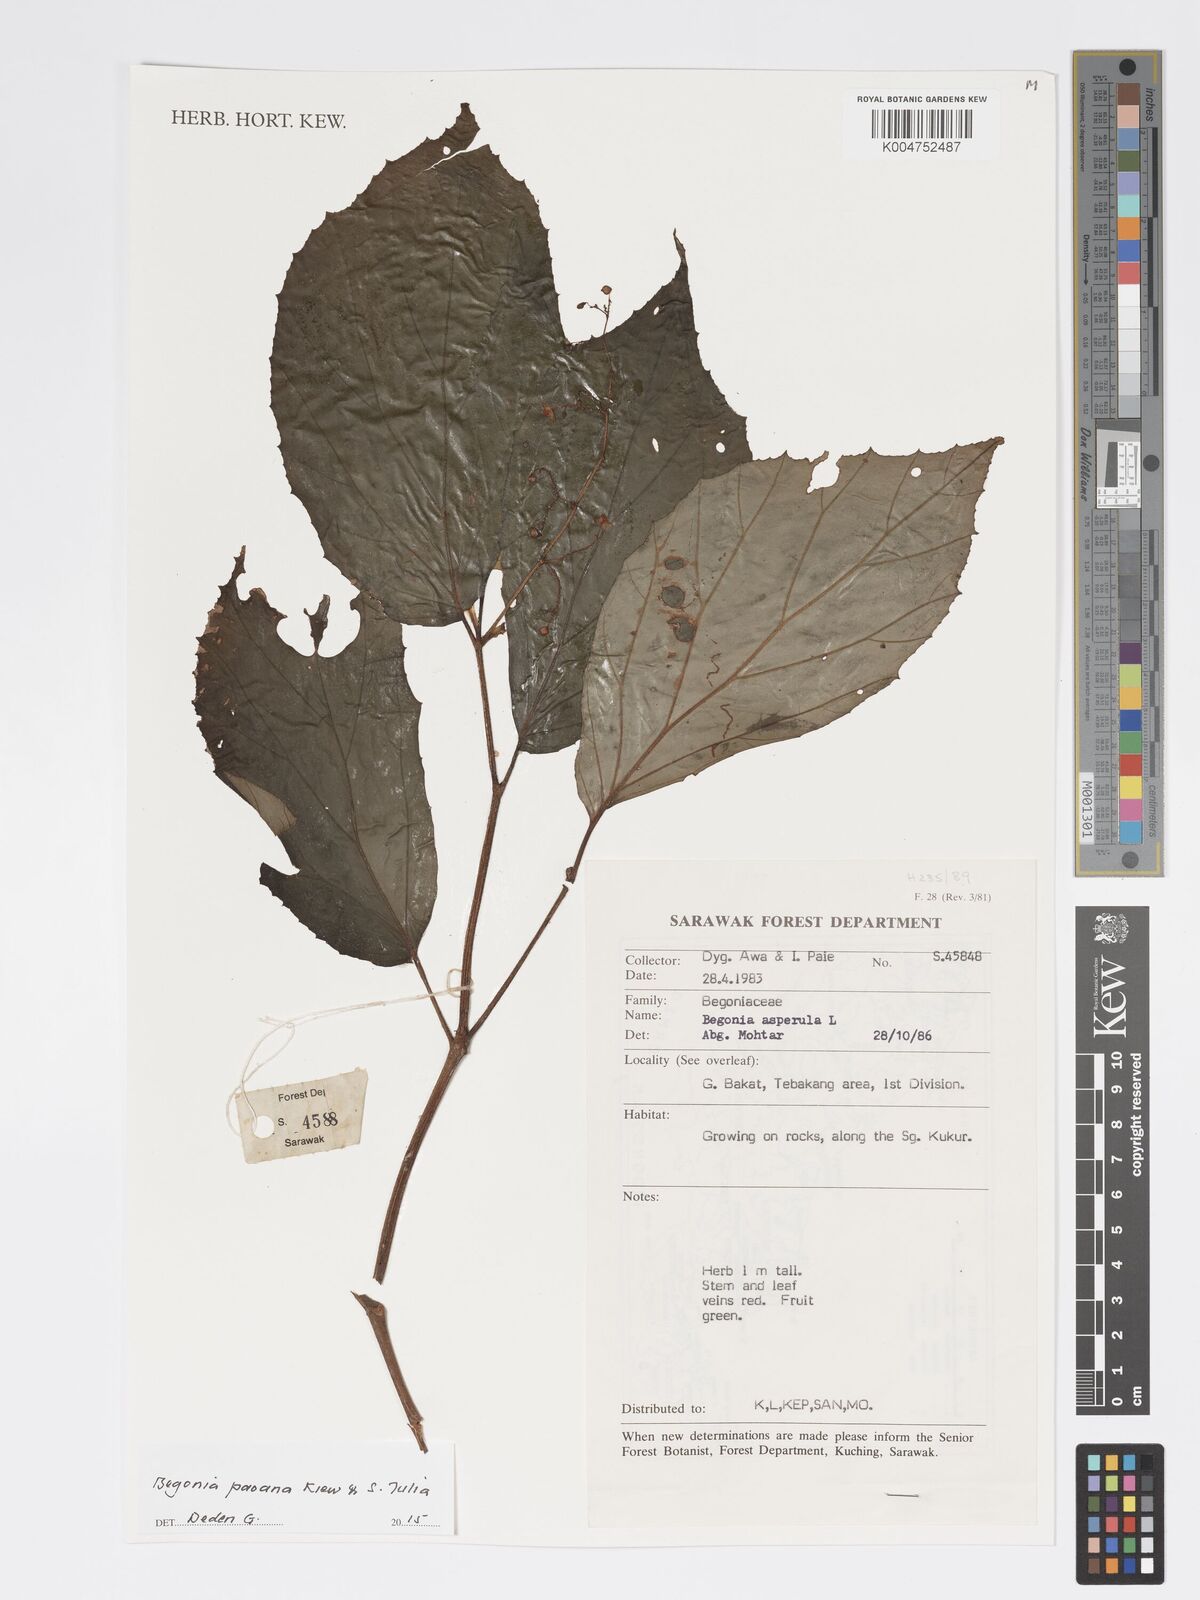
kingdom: Plantae
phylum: Tracheophyta
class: Magnoliopsida
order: Cucurbitales
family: Begoniaceae
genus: Begonia
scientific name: Begonia paoana
